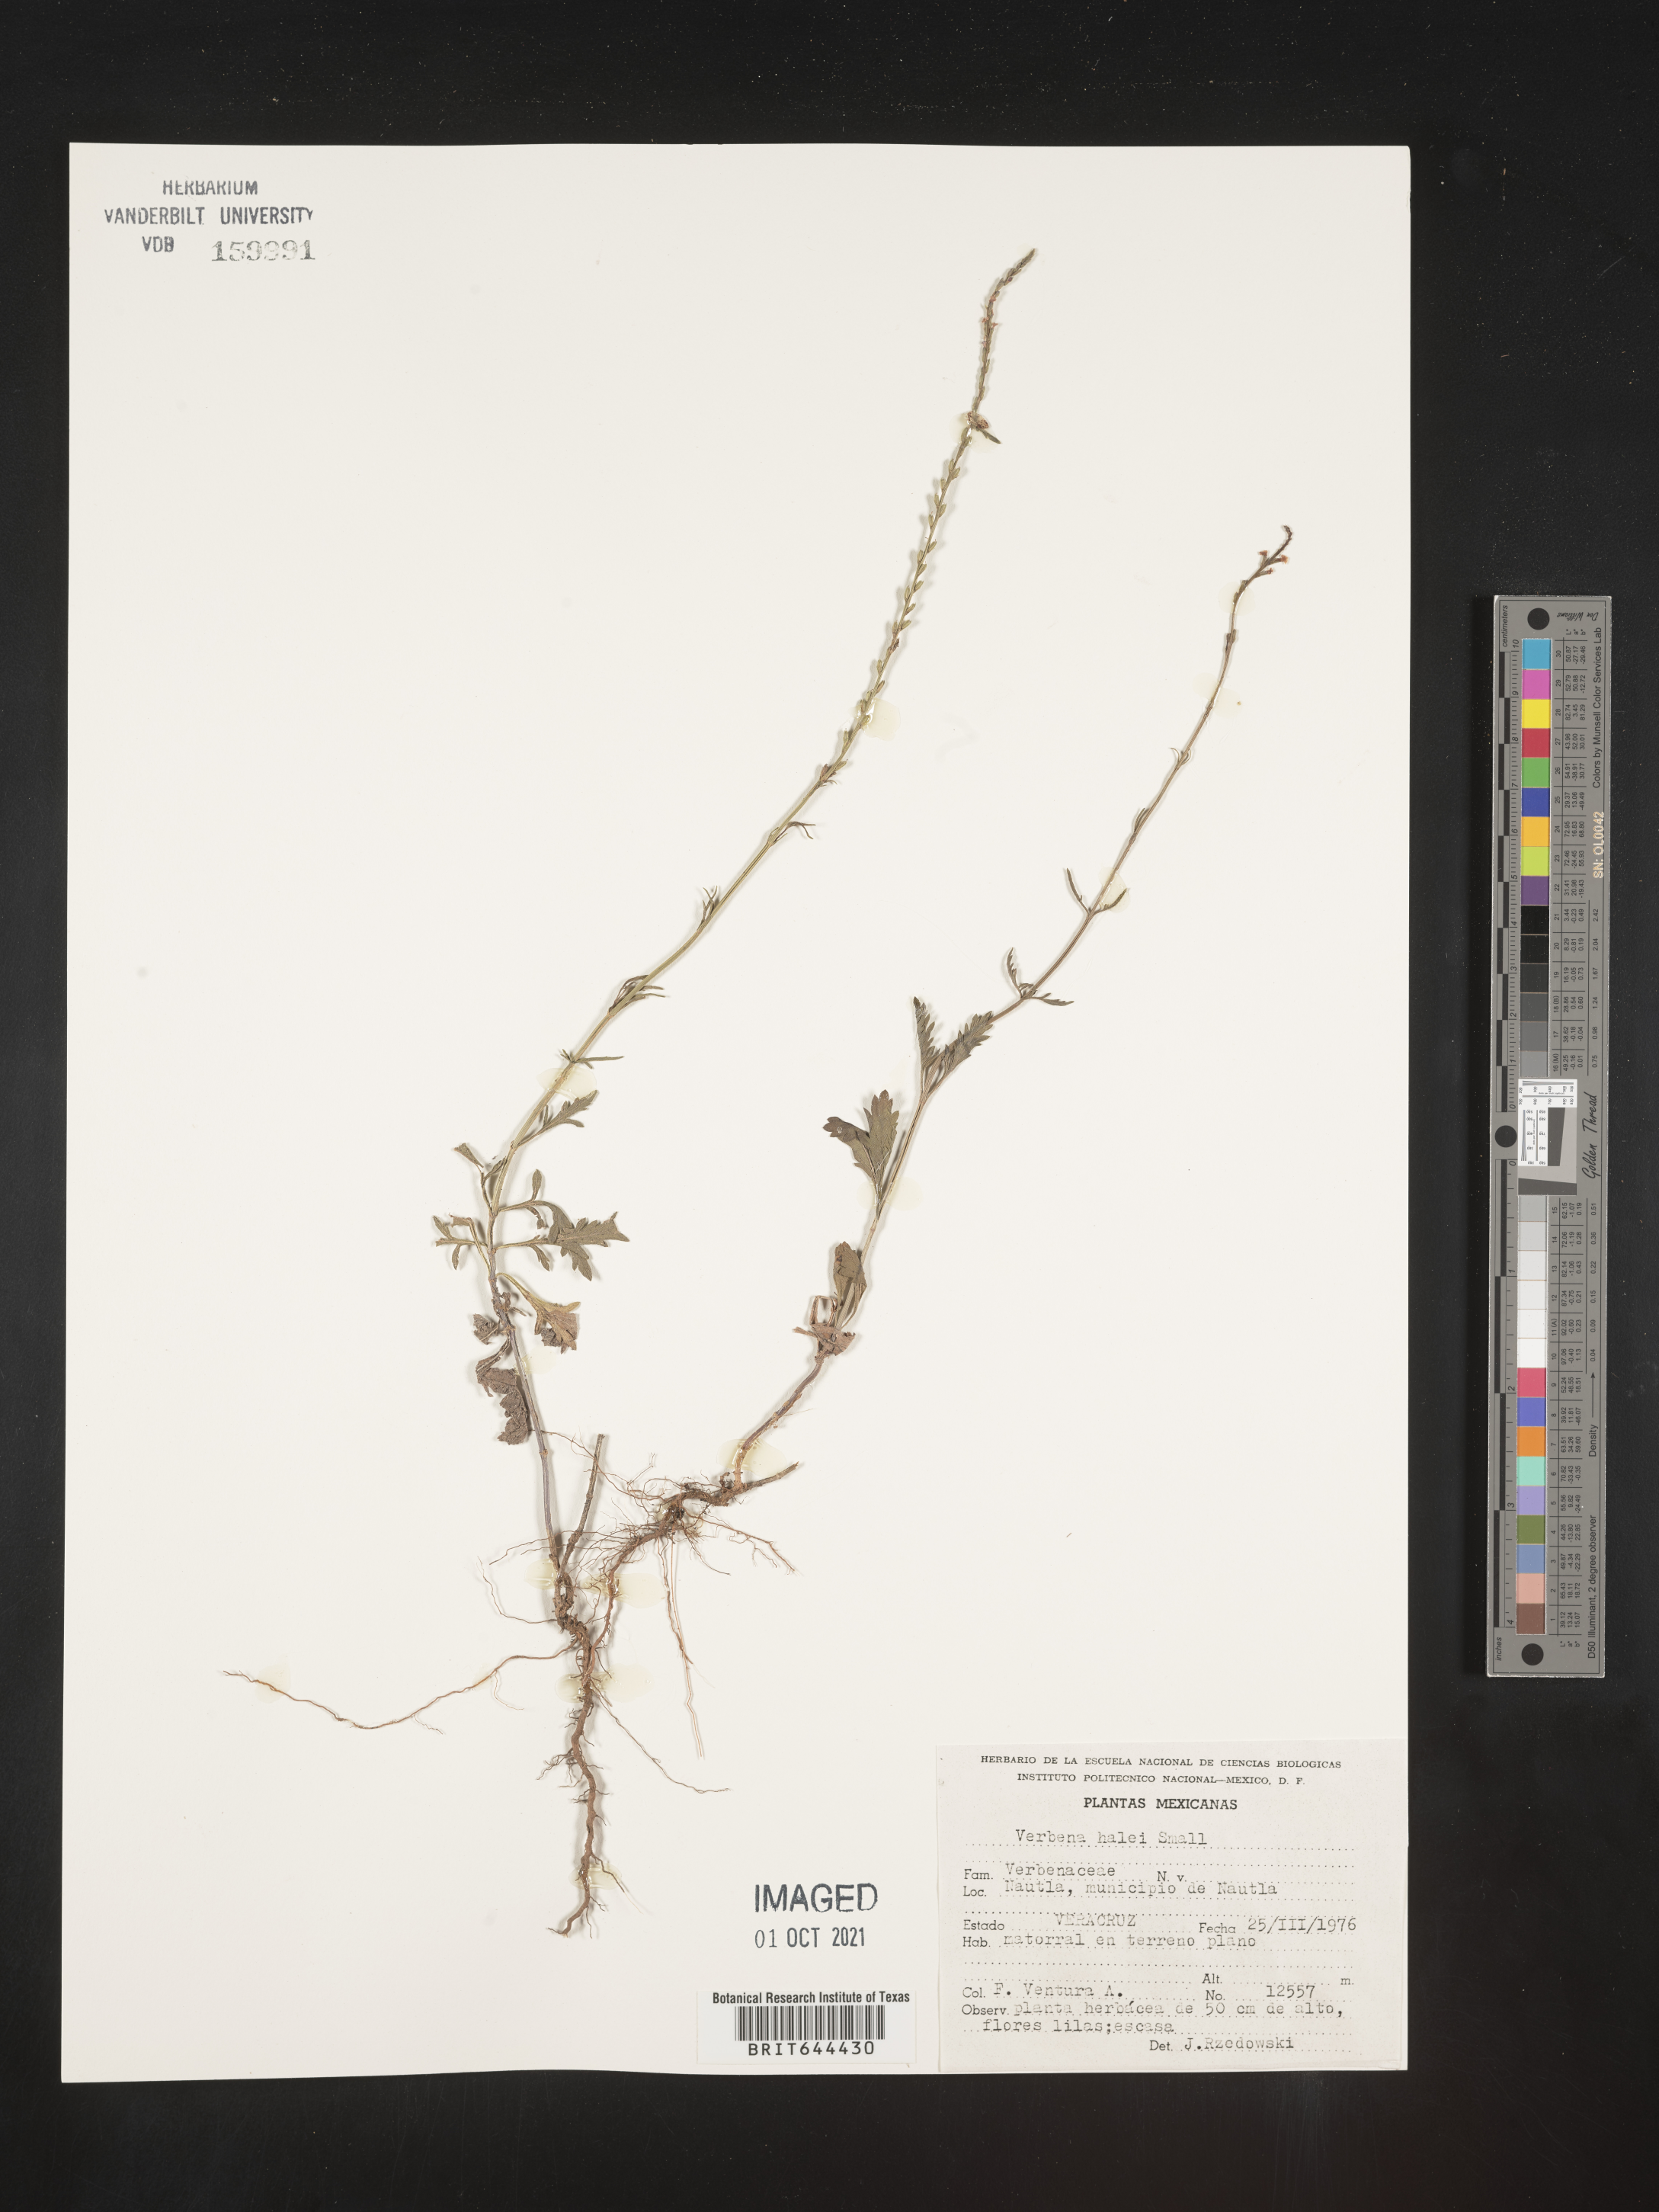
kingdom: Plantae
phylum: Tracheophyta
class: Magnoliopsida
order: Lamiales
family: Verbenaceae
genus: Verbena
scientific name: Verbena
